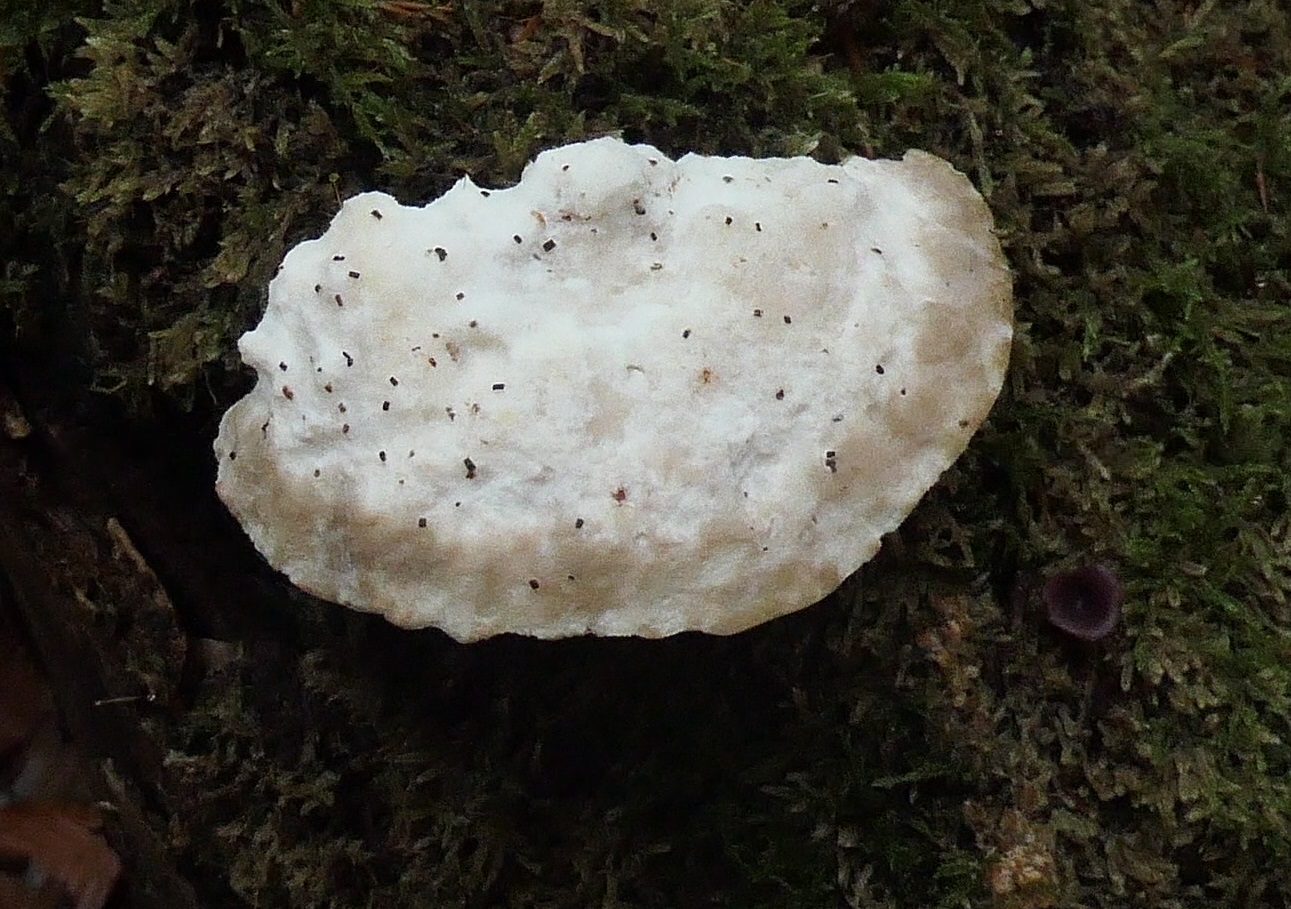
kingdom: Fungi
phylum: Basidiomycota
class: Agaricomycetes
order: Polyporales
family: Incrustoporiaceae
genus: Tyromyces
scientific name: Tyromyces lacteus
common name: mælkehvid kødporesvamp
